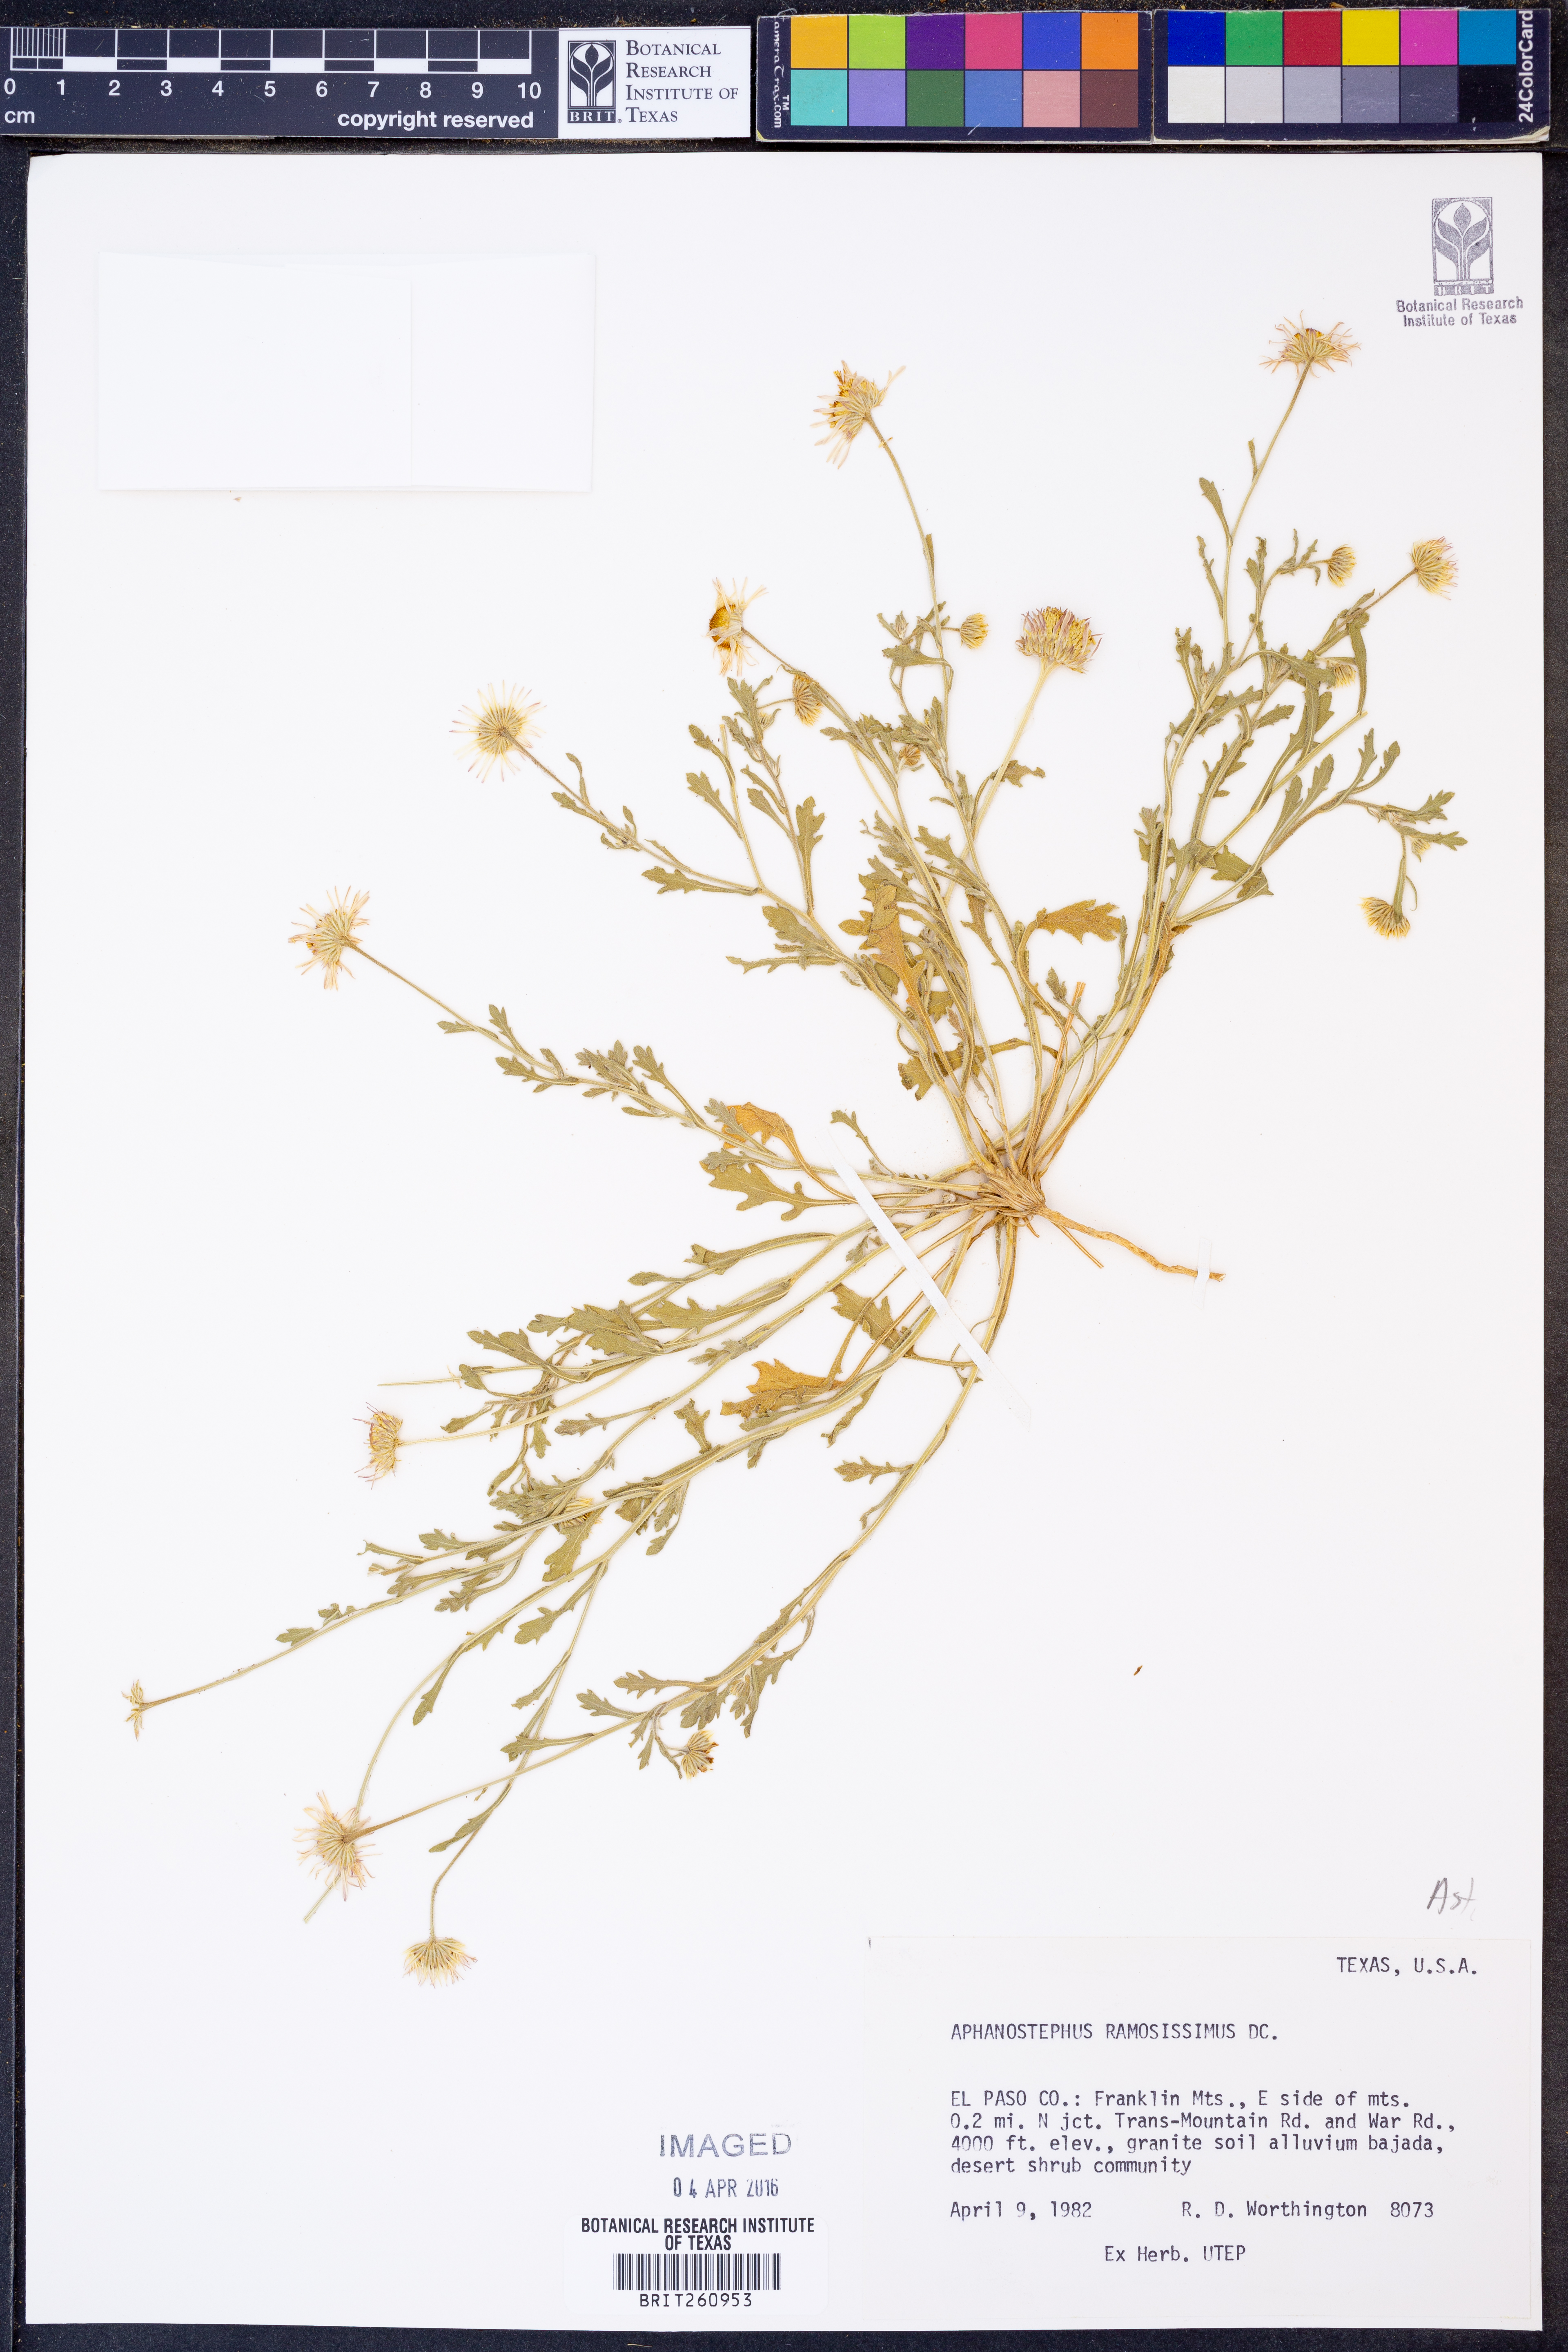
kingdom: Plantae
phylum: Tracheophyta
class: Magnoliopsida
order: Asterales
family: Asteraceae
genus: Aphanostephus
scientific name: Aphanostephus ramosissimus
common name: Plains lazy daisy
